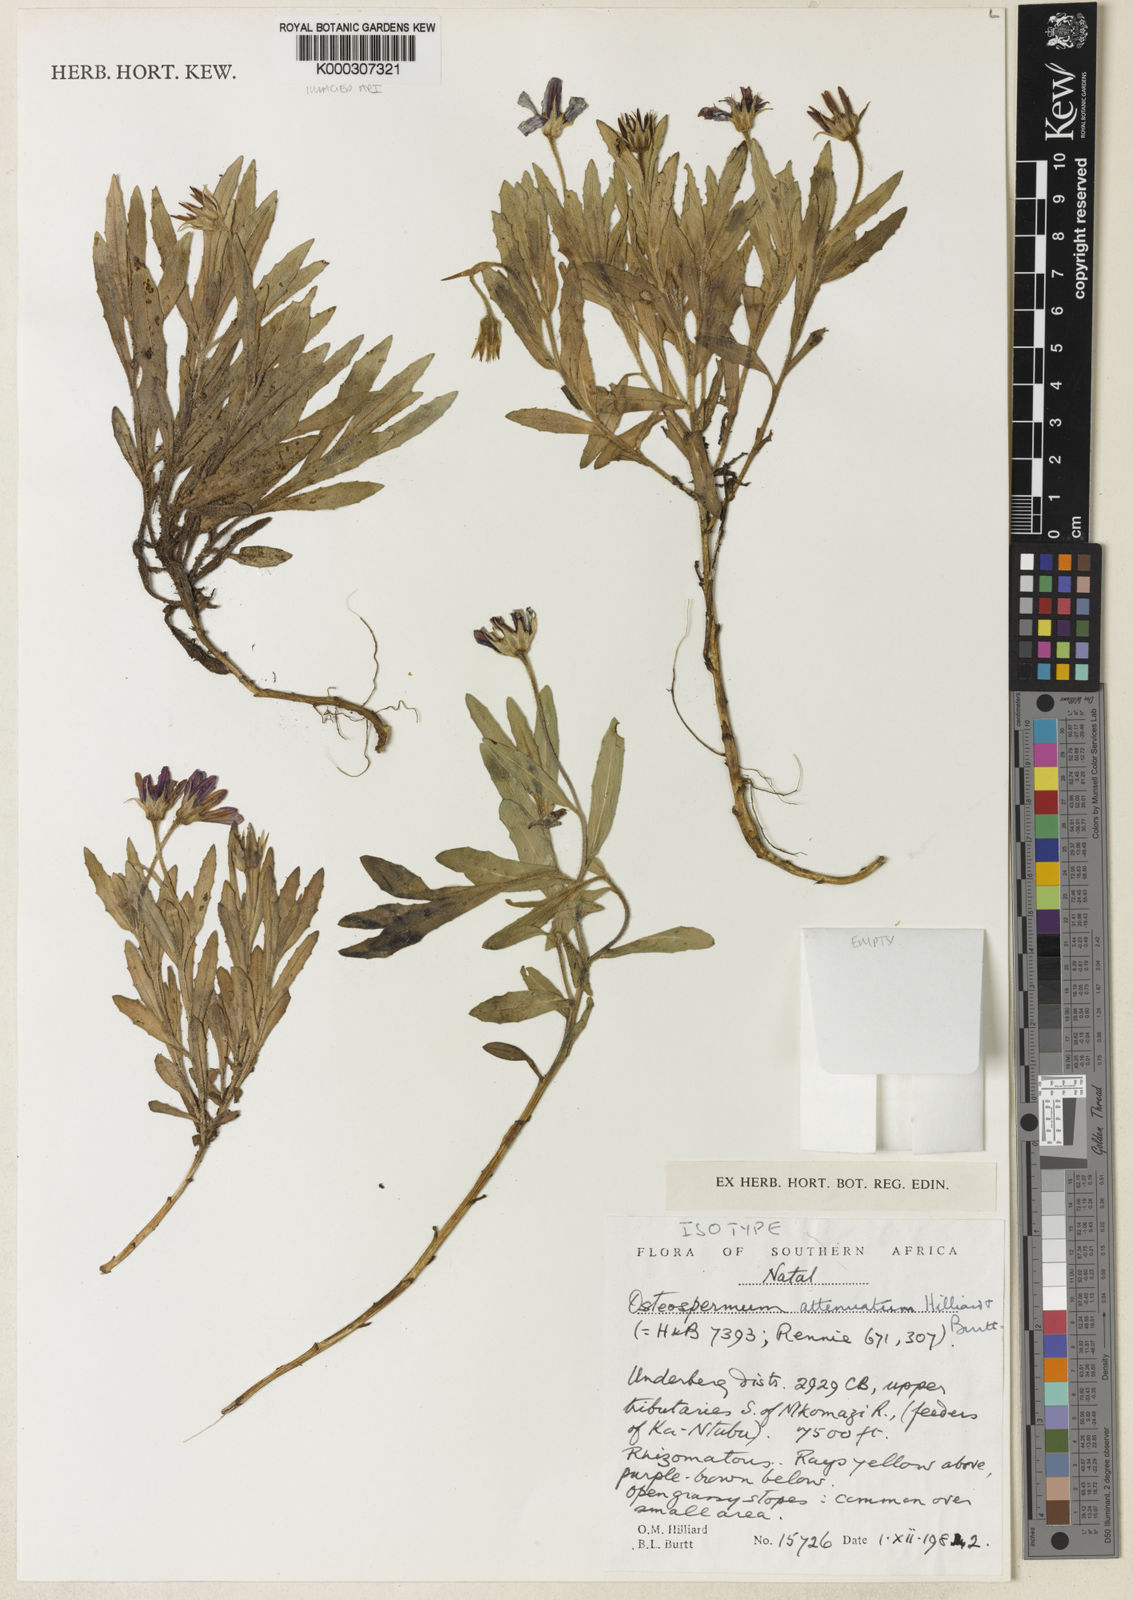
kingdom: Plantae
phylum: Tracheophyta
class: Magnoliopsida
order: Asterales
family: Asteraceae
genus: Osteospermum
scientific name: Osteospermum attenuatum
